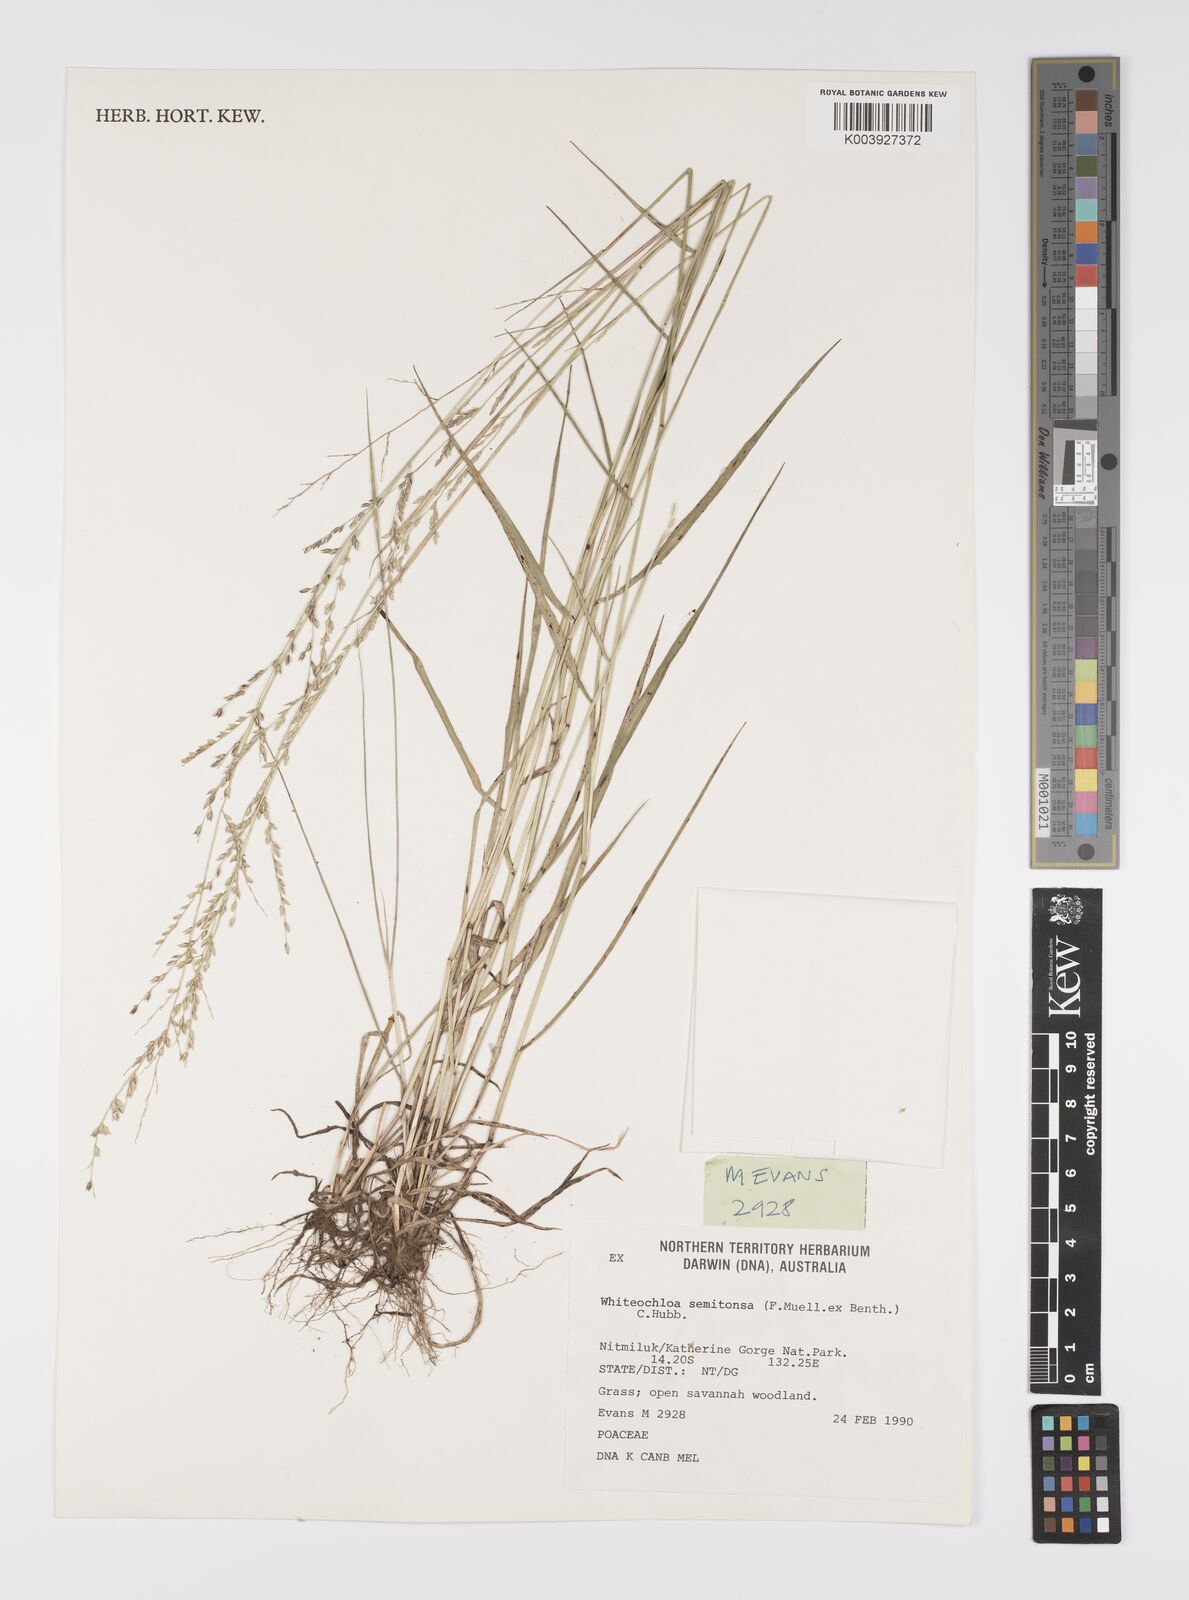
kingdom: Plantae
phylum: Tracheophyta
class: Liliopsida
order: Poales
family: Poaceae
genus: Whiteochloa
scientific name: Whiteochloa semitonsa
